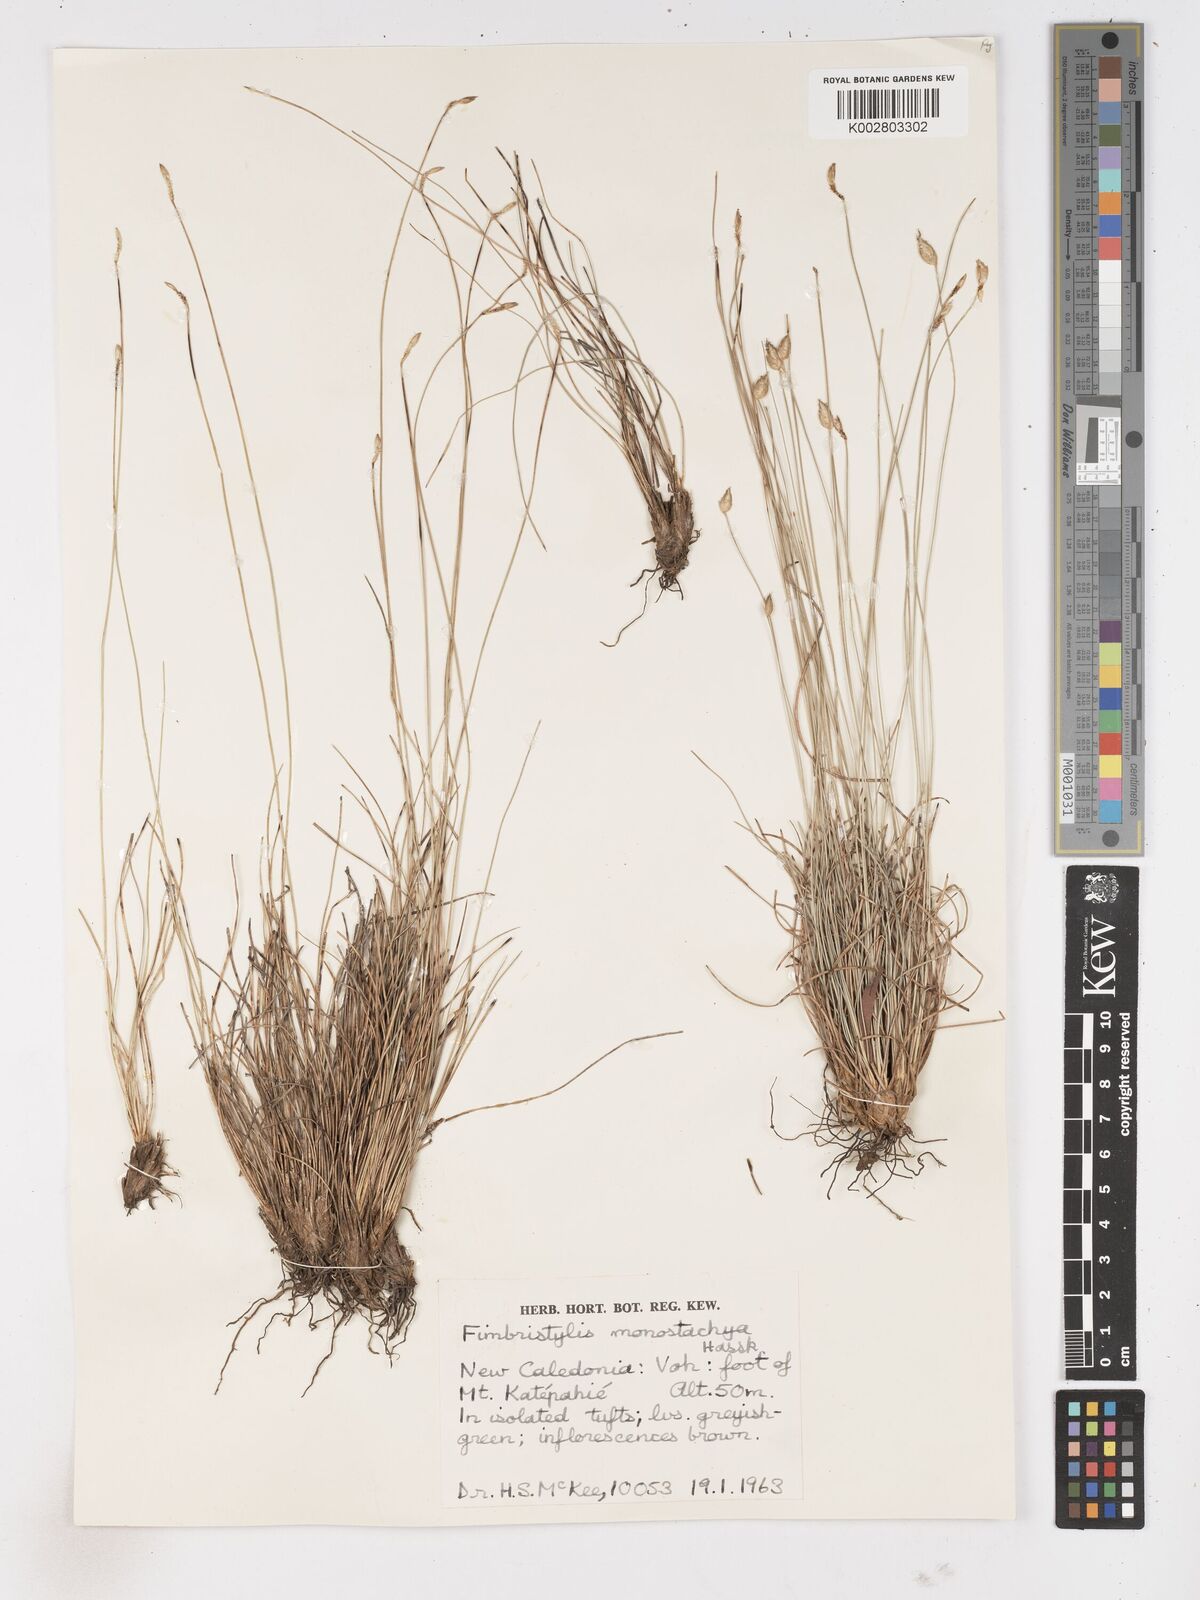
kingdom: Plantae
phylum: Tracheophyta
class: Liliopsida
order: Poales
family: Cyperaceae
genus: Abildgaardia
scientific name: Abildgaardia ovata
